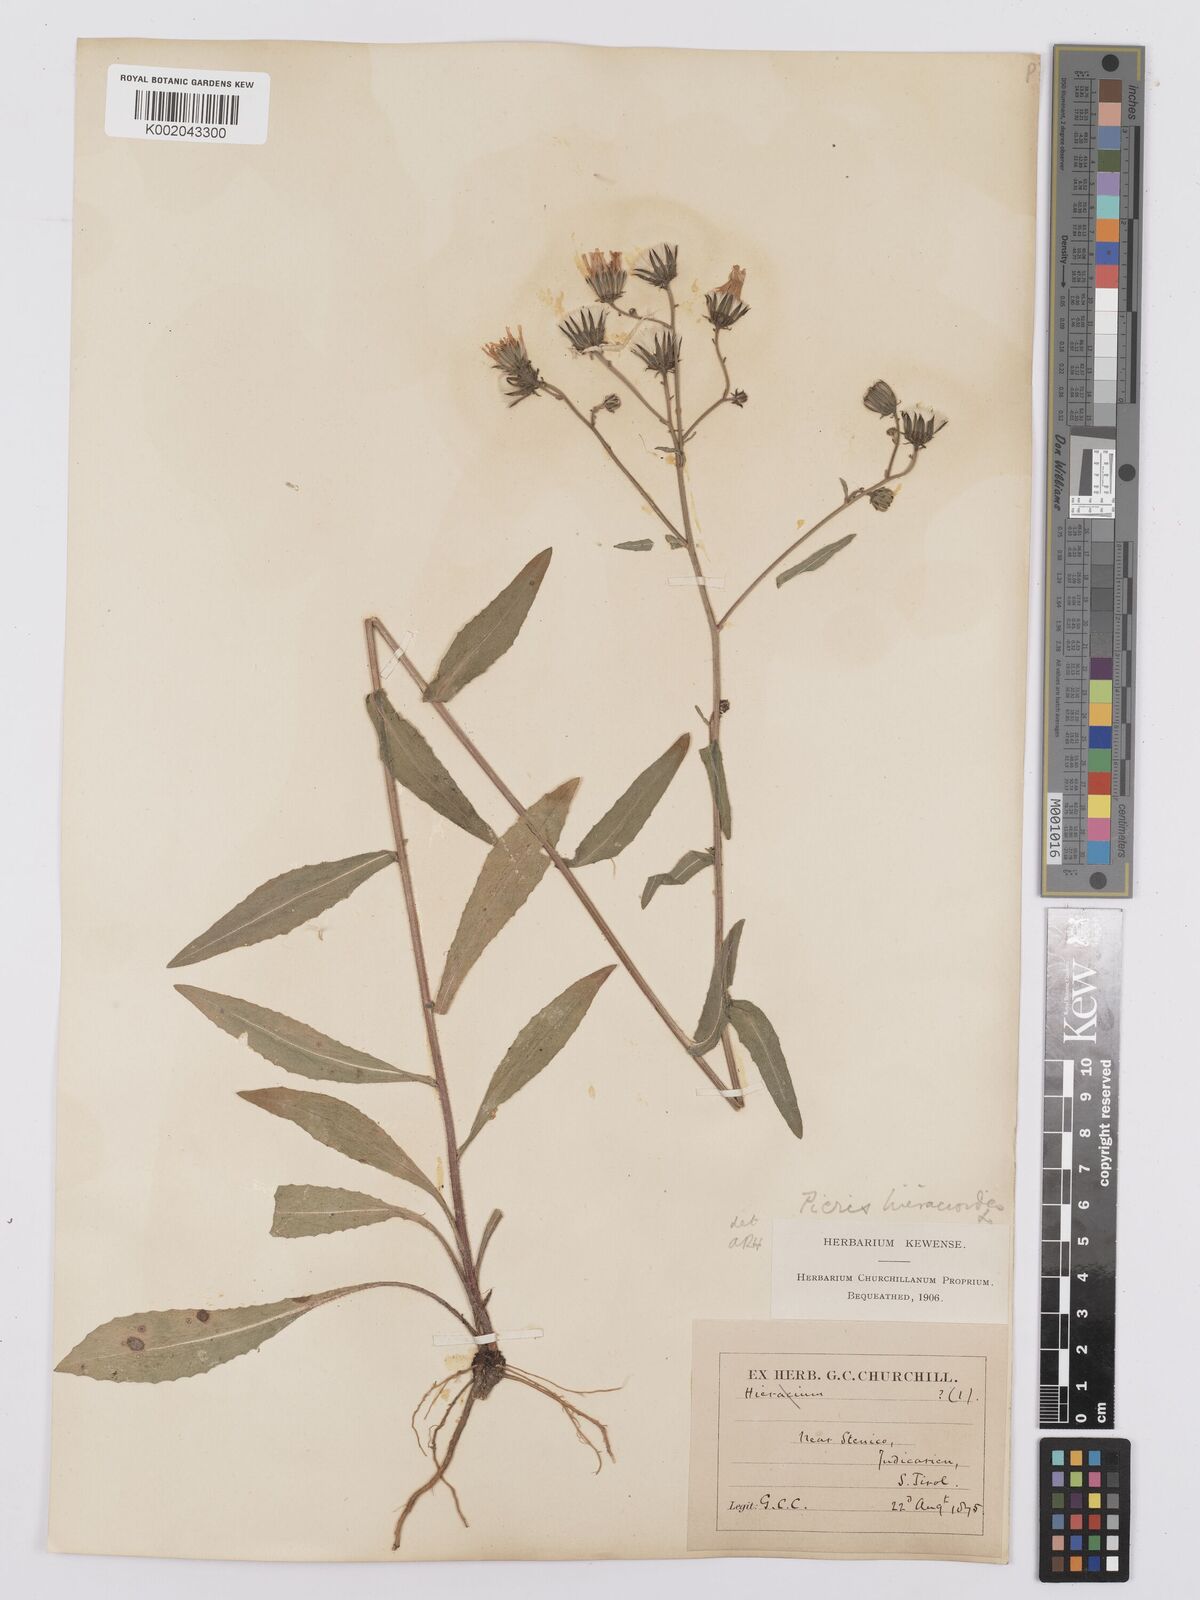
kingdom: Plantae
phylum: Tracheophyta
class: Magnoliopsida
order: Asterales
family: Asteraceae
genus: Picris
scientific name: Picris hieracioides
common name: Hawkweed oxtongue
